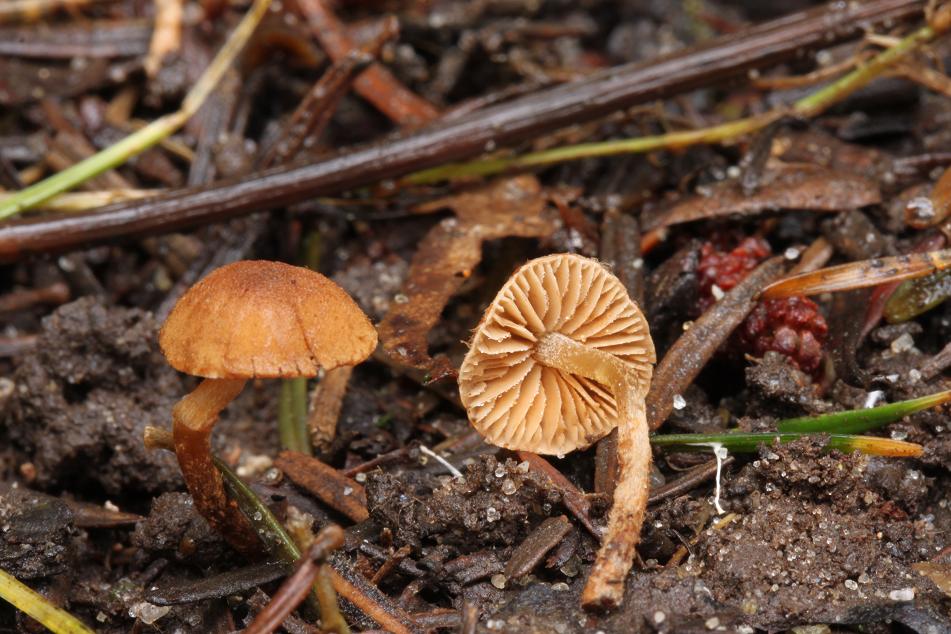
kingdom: Fungi
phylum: Basidiomycota
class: Agaricomycetes
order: Agaricales
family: Tubariaceae
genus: Flammulaster
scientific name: Flammulaster granulosus
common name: gulbrun grynskælhat
